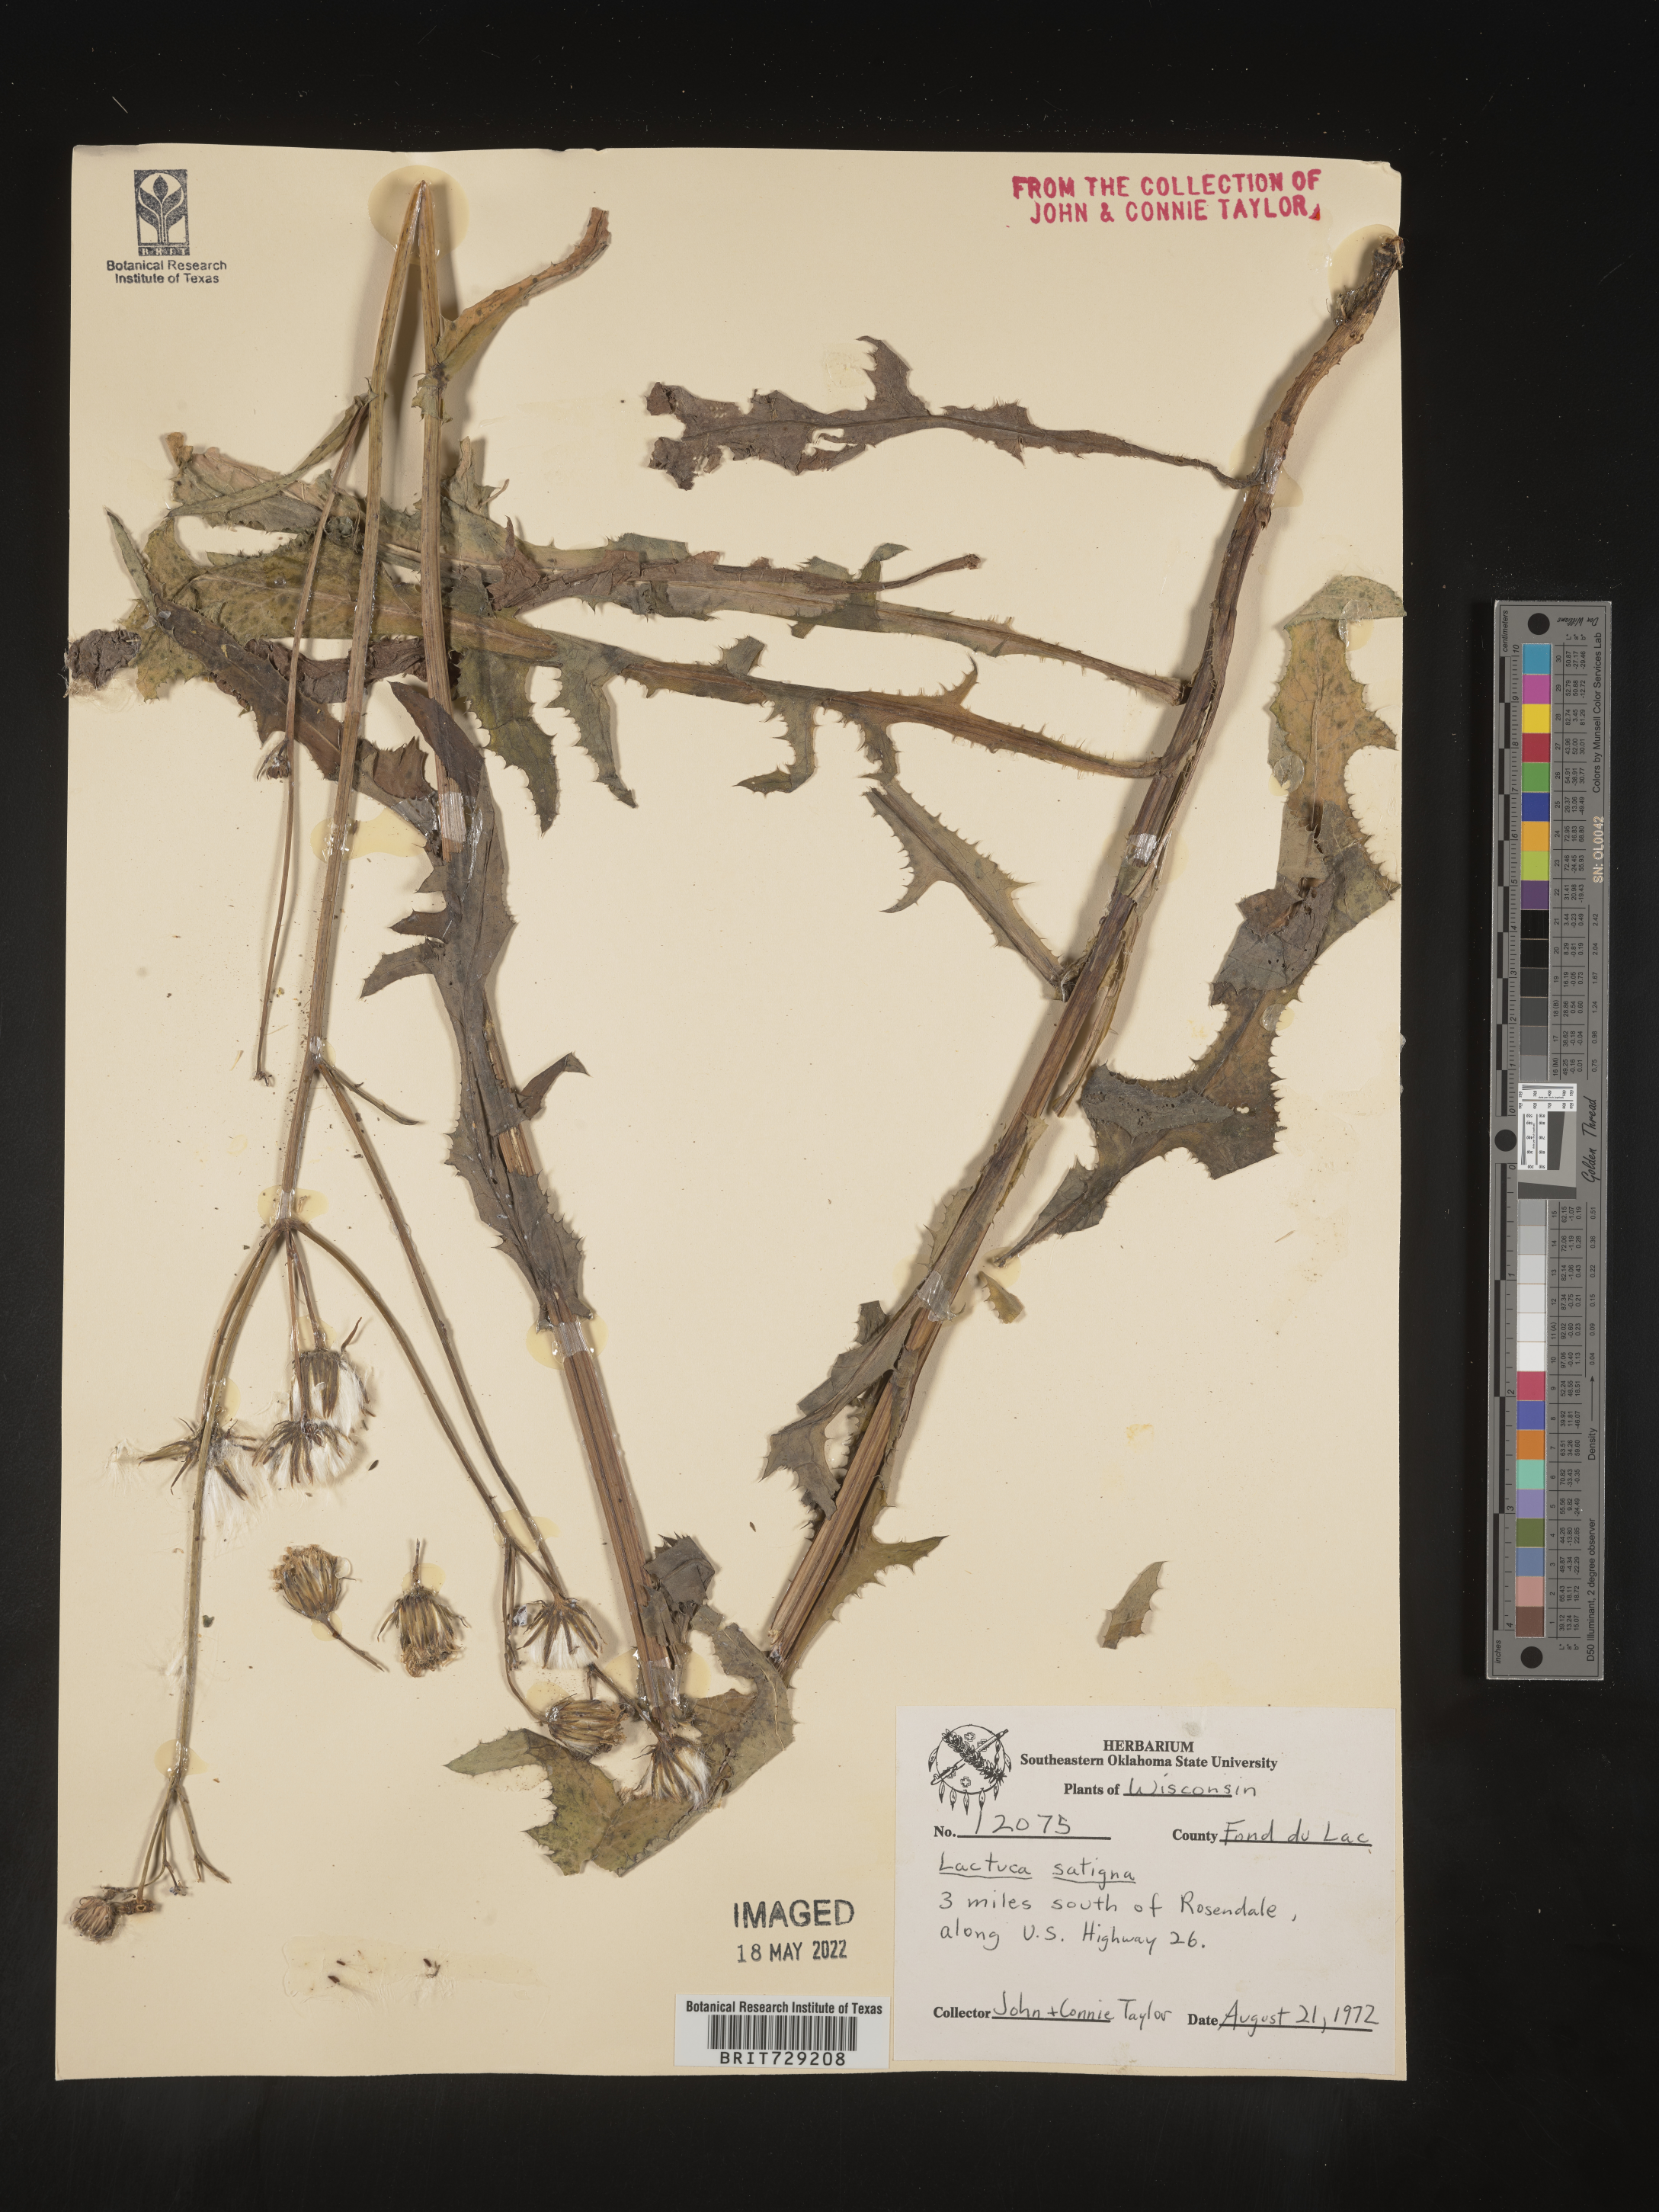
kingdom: Plantae
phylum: Tracheophyta
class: Magnoliopsida
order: Asterales
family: Asteraceae
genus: Lactuca
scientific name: Lactuca saligna
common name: Wild lettuce
